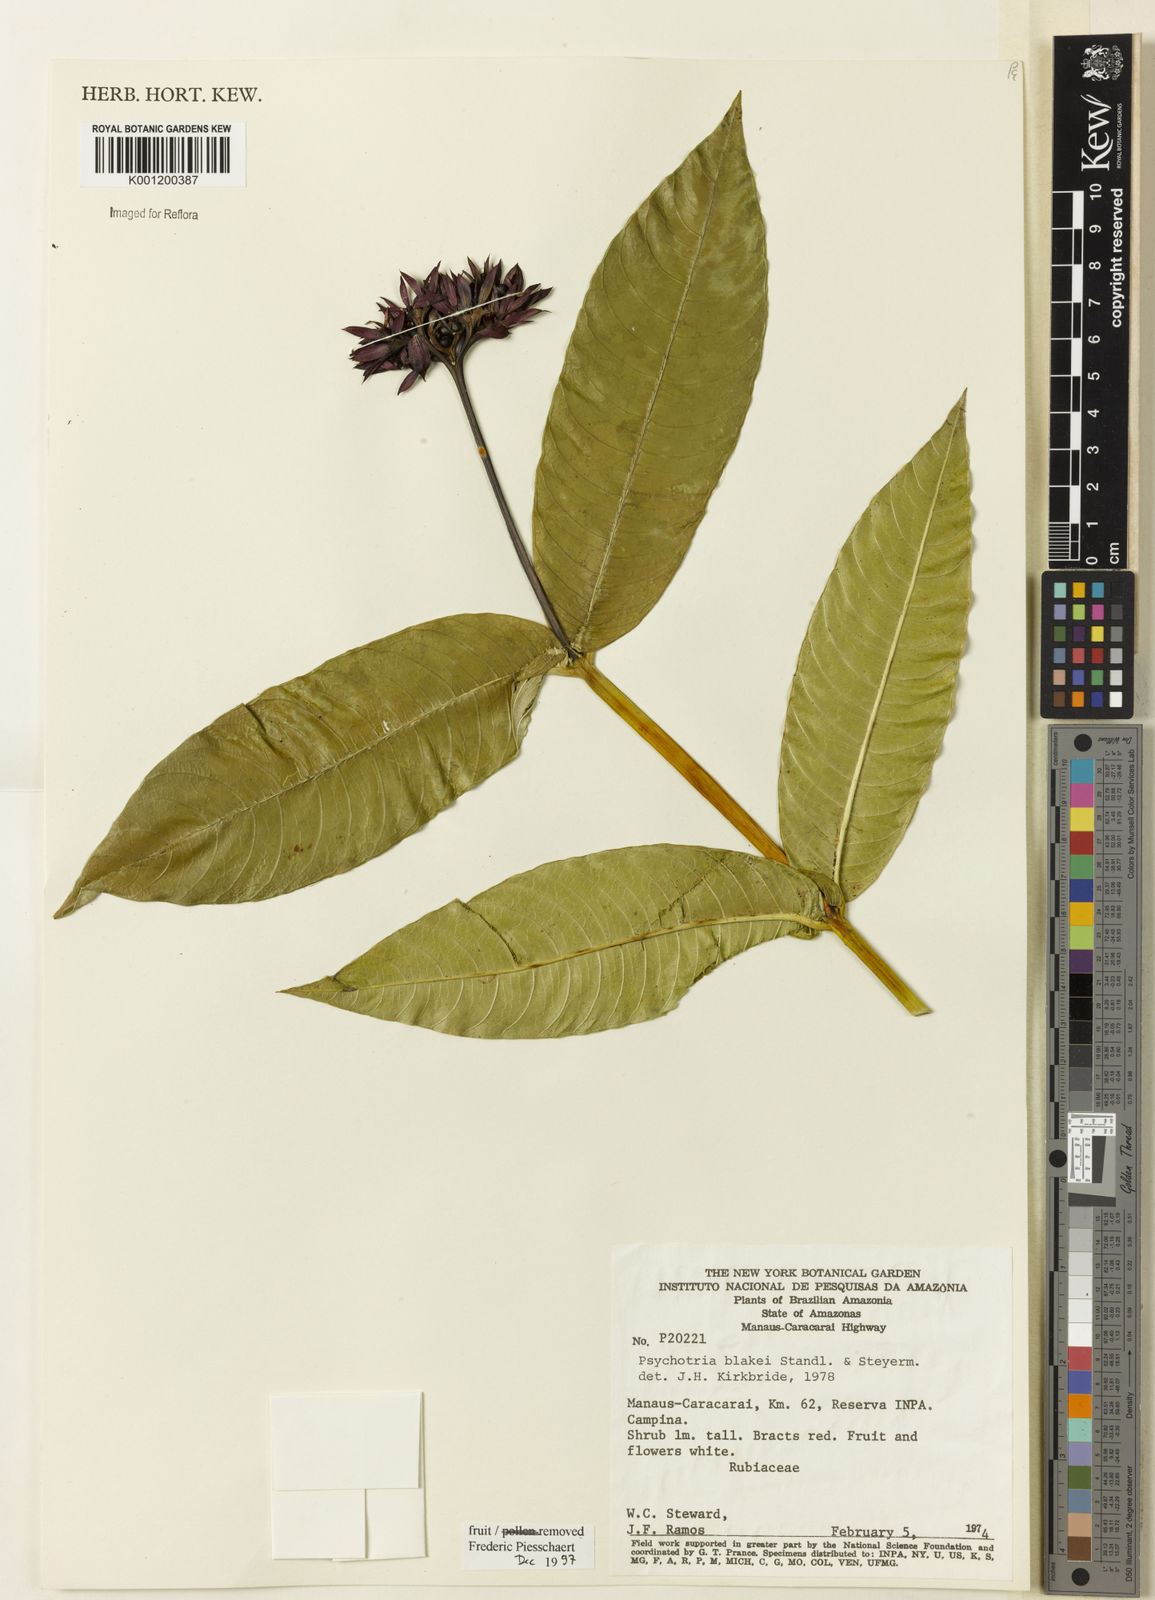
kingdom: Plantae
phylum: Tracheophyta
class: Magnoliopsida
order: Gentianales
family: Rubiaceae
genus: Palicourea
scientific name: Palicourea blakei
